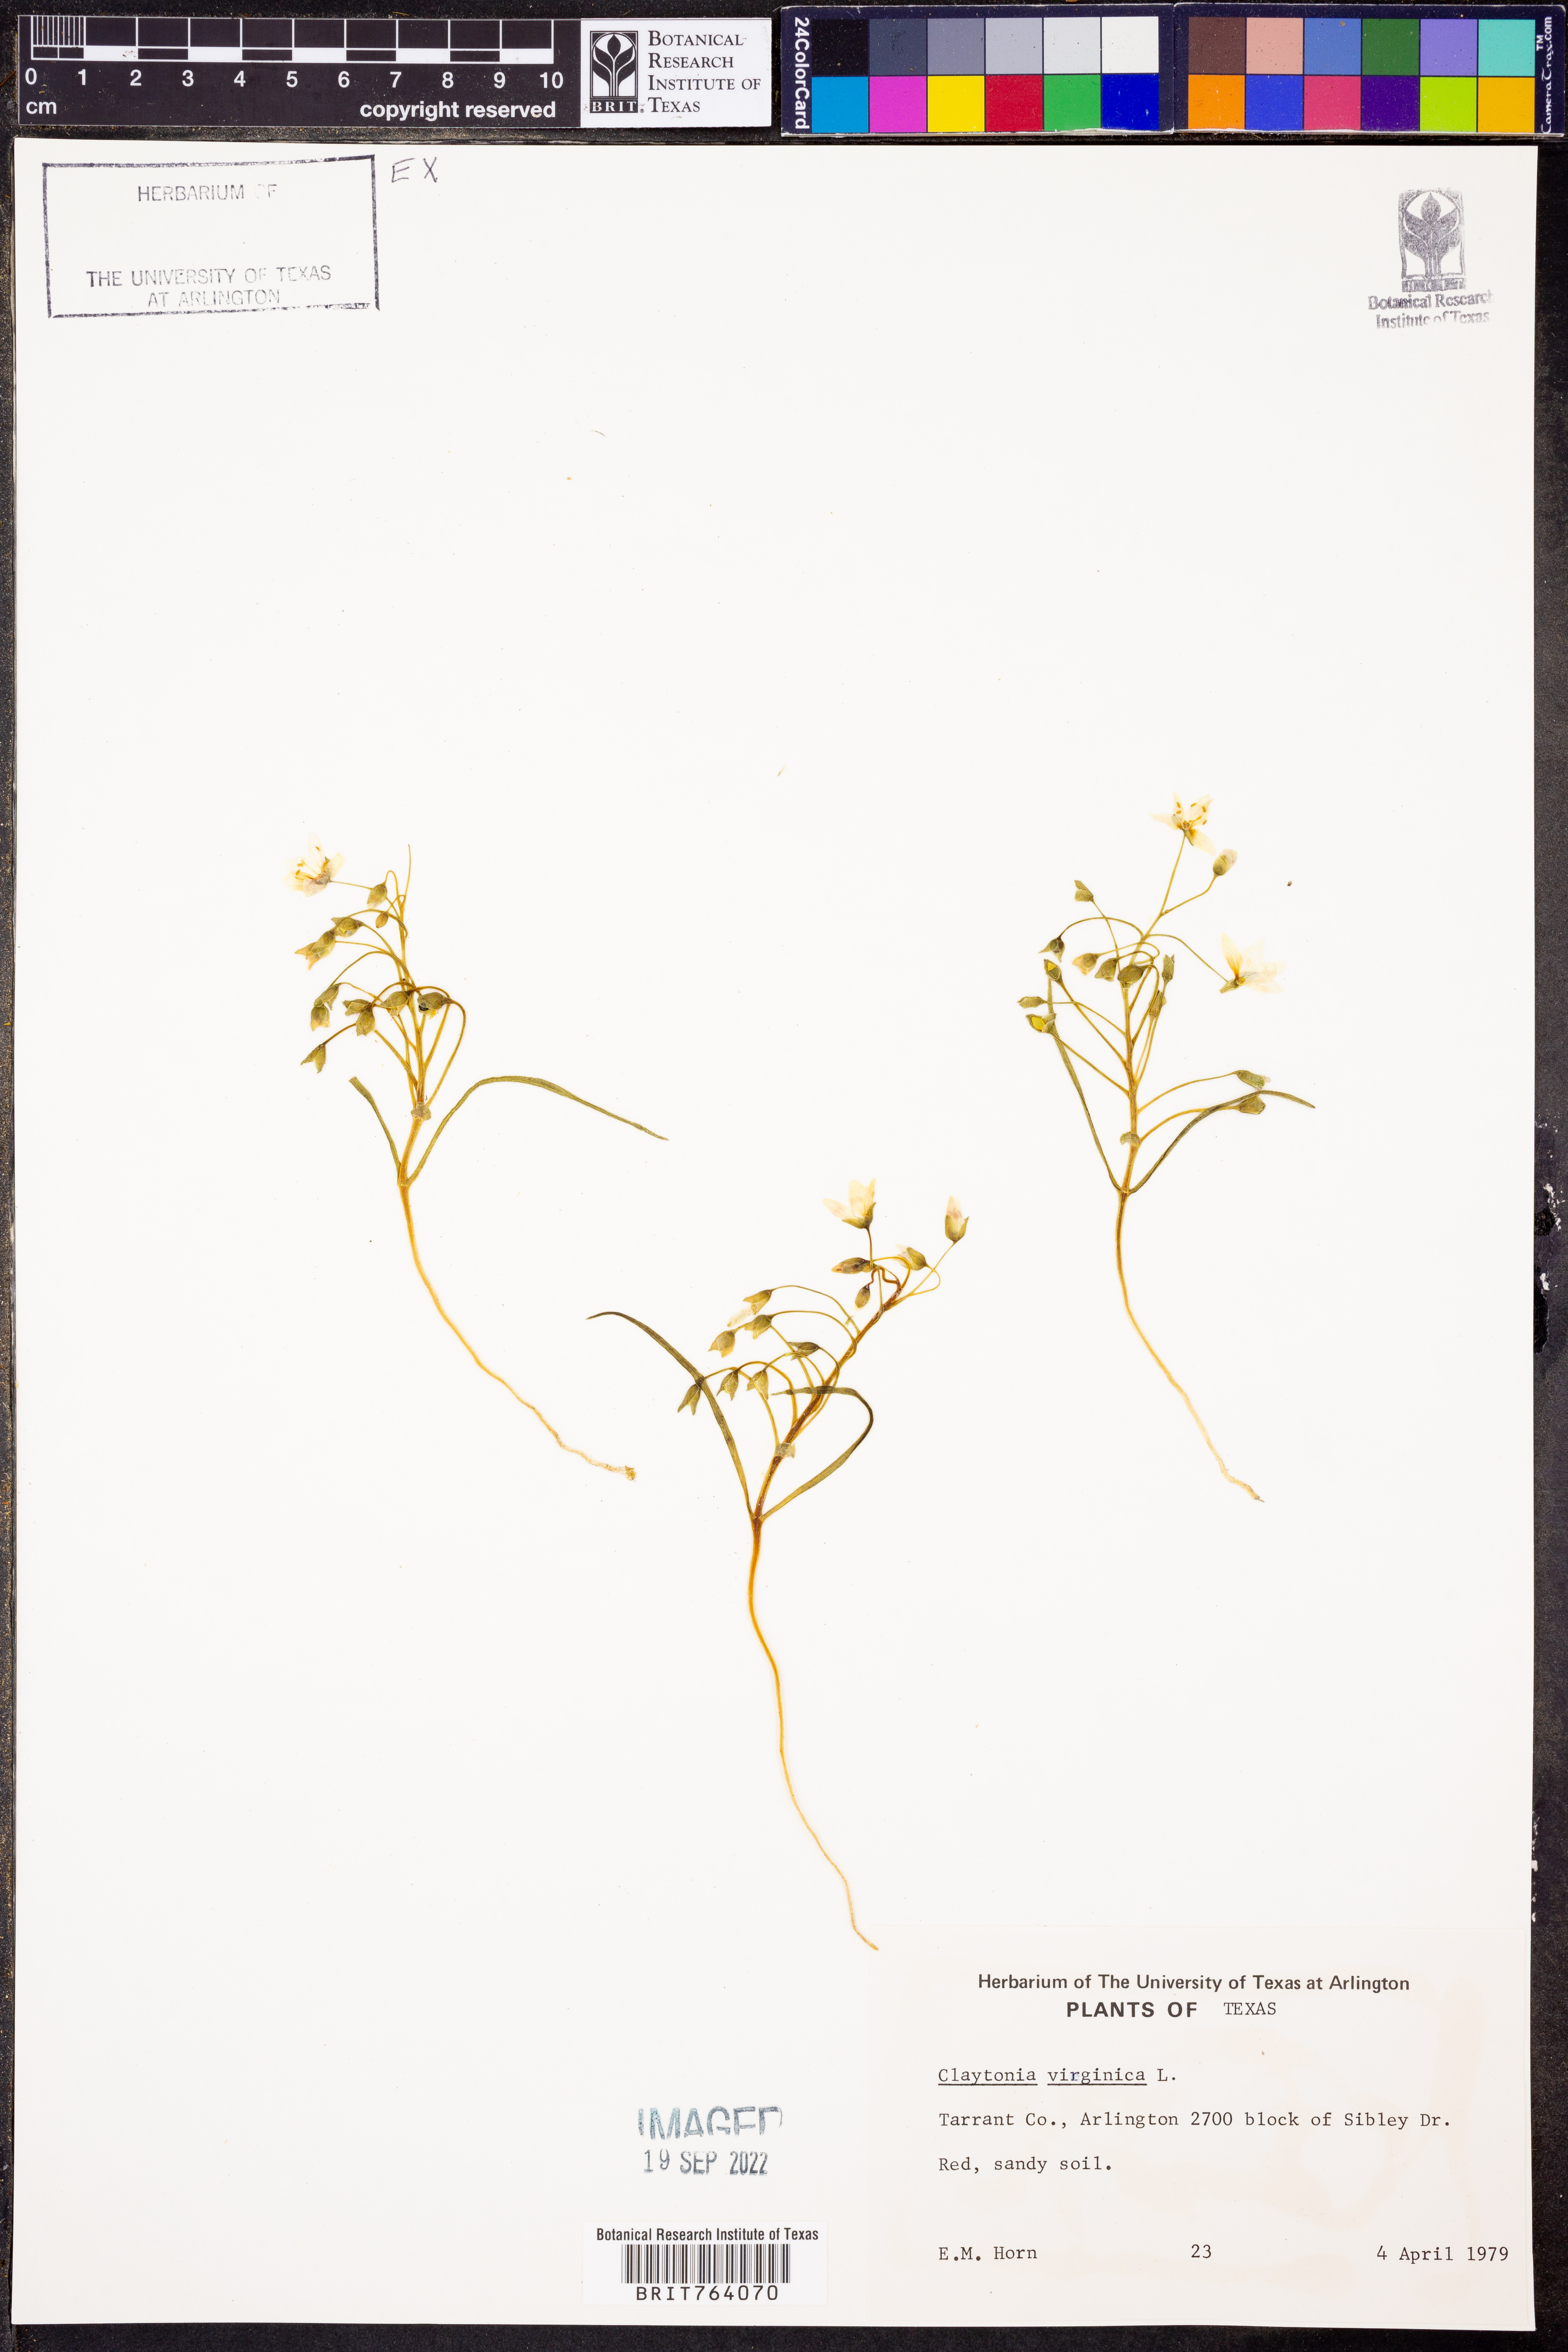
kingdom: Plantae
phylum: Tracheophyta
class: Magnoliopsida
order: Caryophyllales
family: Montiaceae
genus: Claytonia
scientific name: Claytonia virginica
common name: Virginia springbeauty
